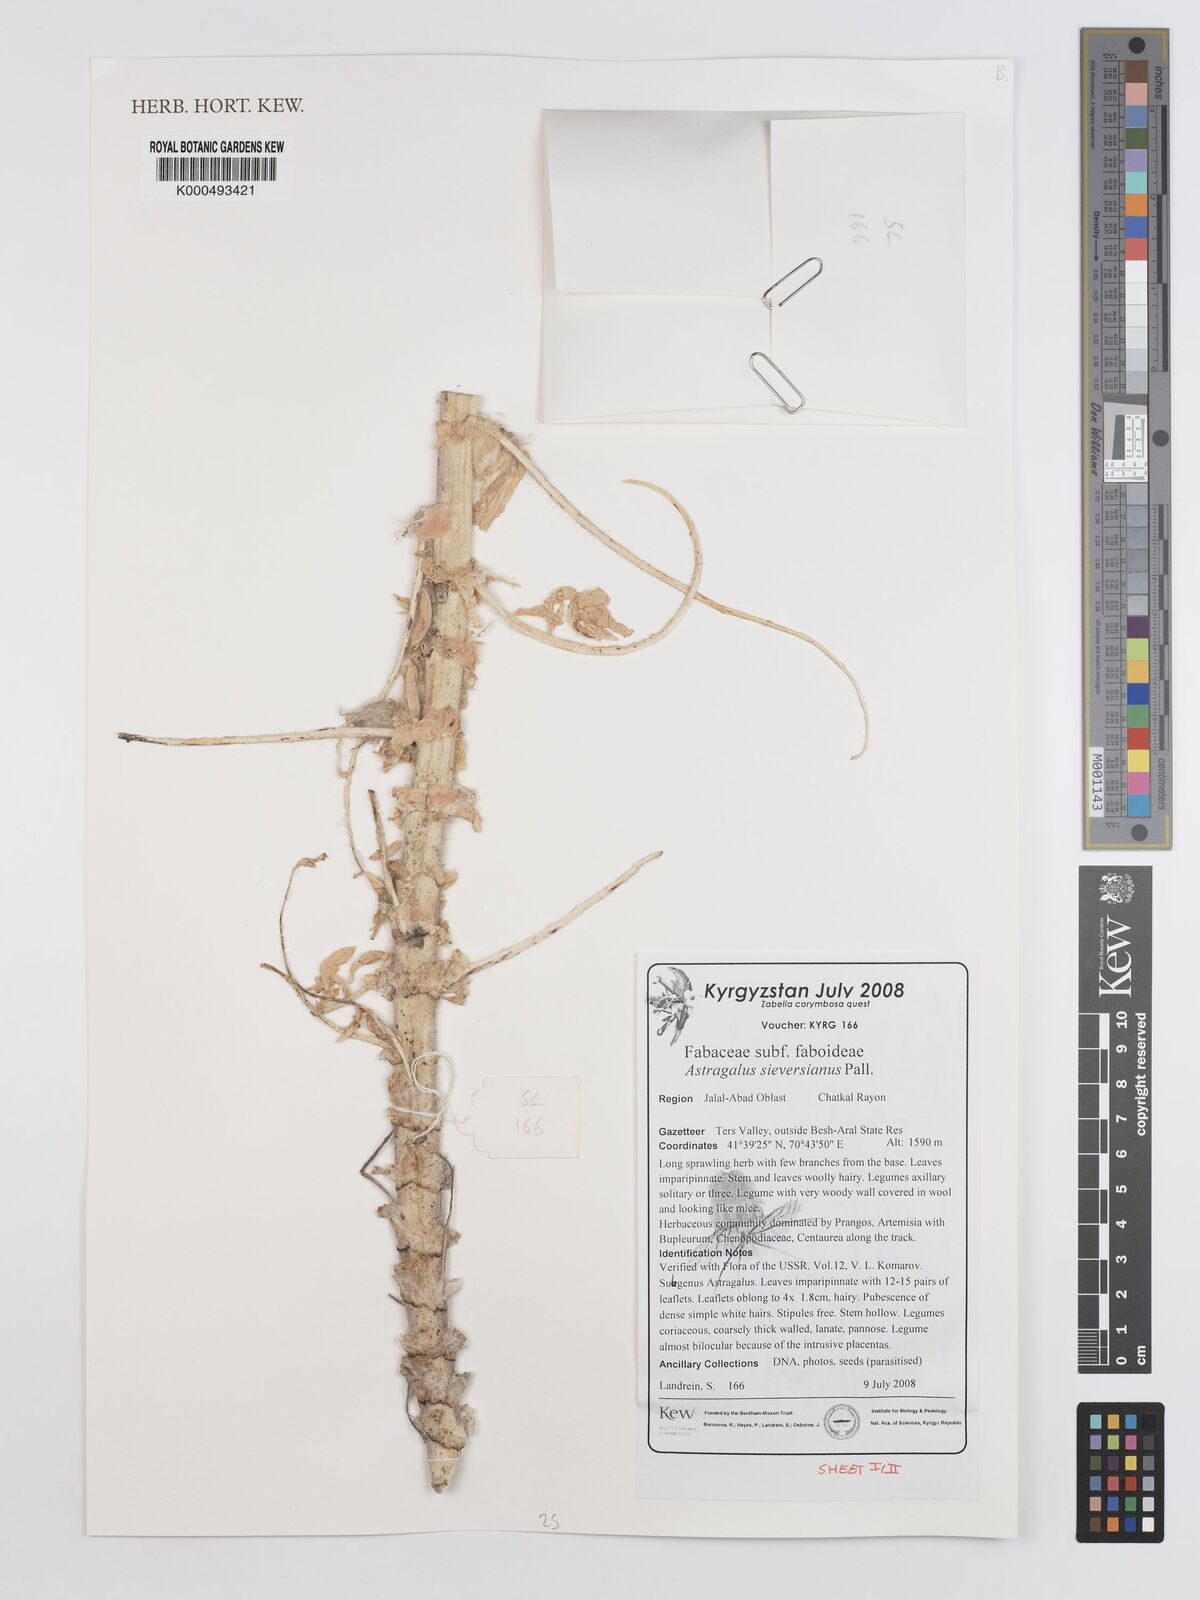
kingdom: Plantae
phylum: Tracheophyta
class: Magnoliopsida
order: Fabales
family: Fabaceae
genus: Astragalus
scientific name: Astragalus sieversianus
